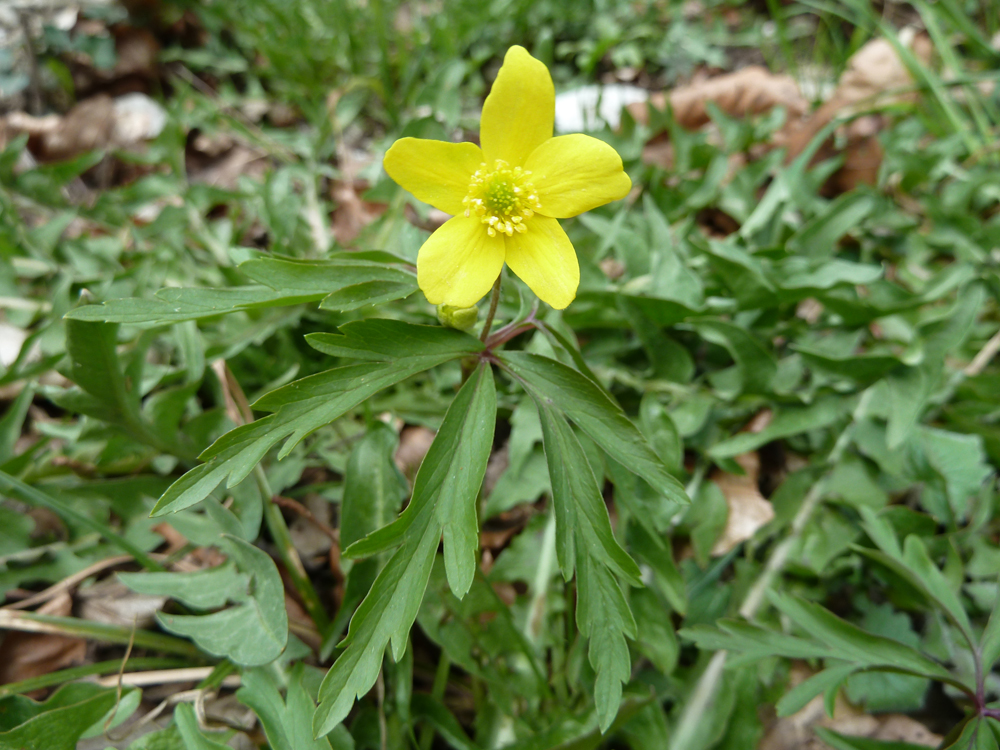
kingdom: Plantae
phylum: Tracheophyta
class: Magnoliopsida
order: Ranunculales
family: Ranunculaceae
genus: Anemone
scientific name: Anemone ranunculoides
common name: Yellow anemone
